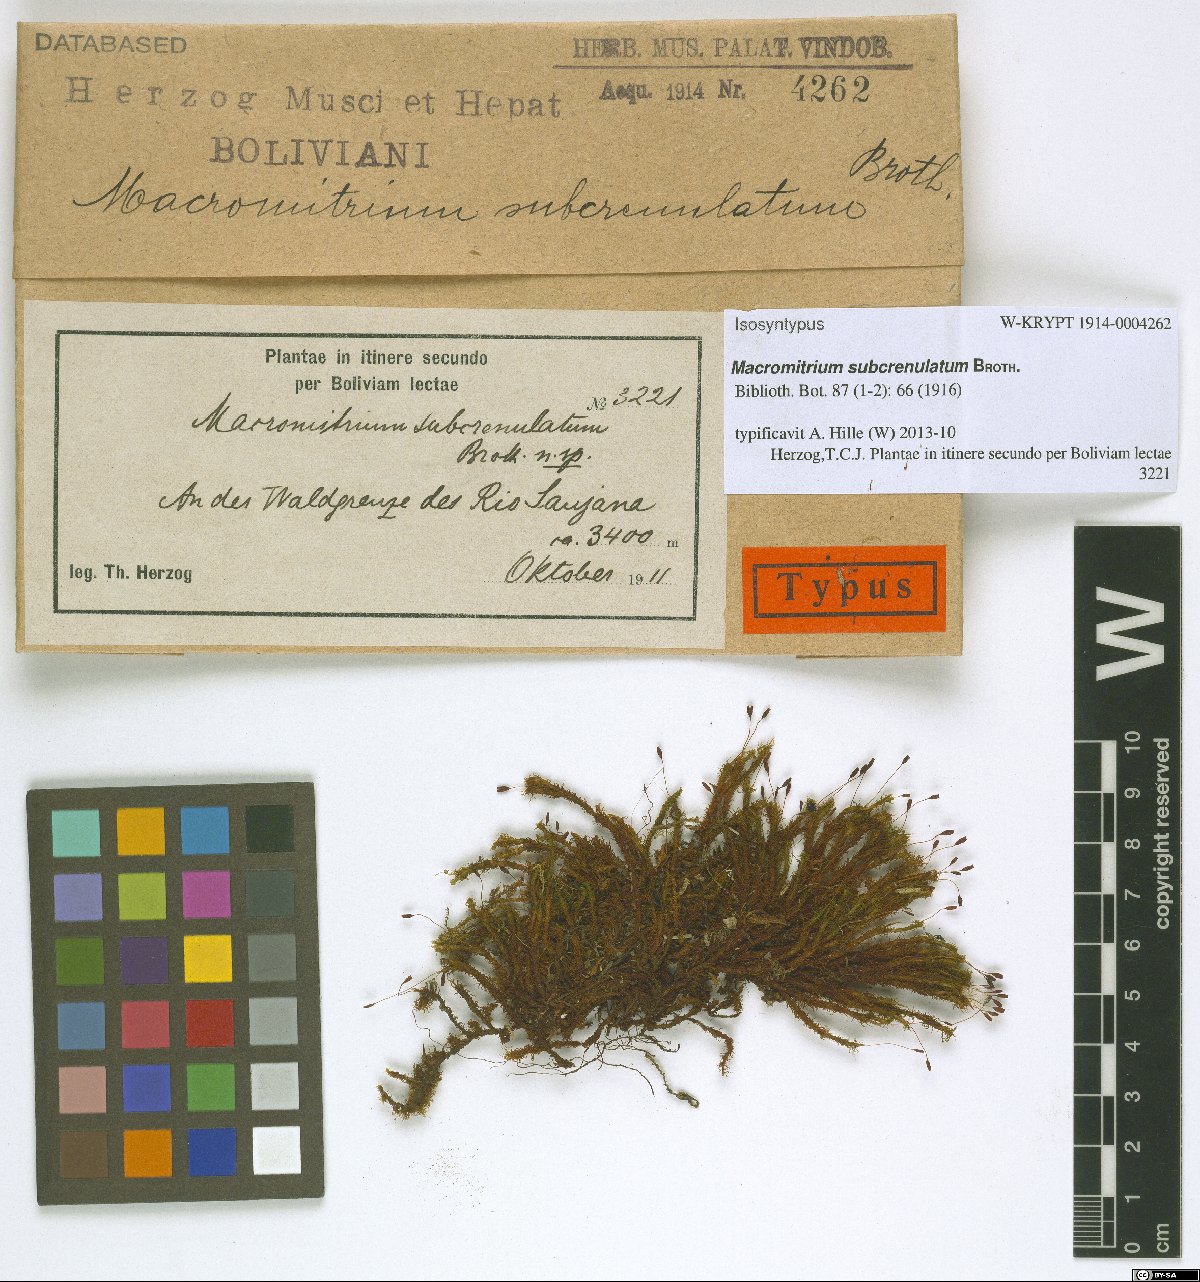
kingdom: Plantae
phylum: Bryophyta
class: Bryopsida
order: Orthotrichales
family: Orthotrichaceae
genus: Macromitrium
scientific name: Macromitrium subcrenulatum
